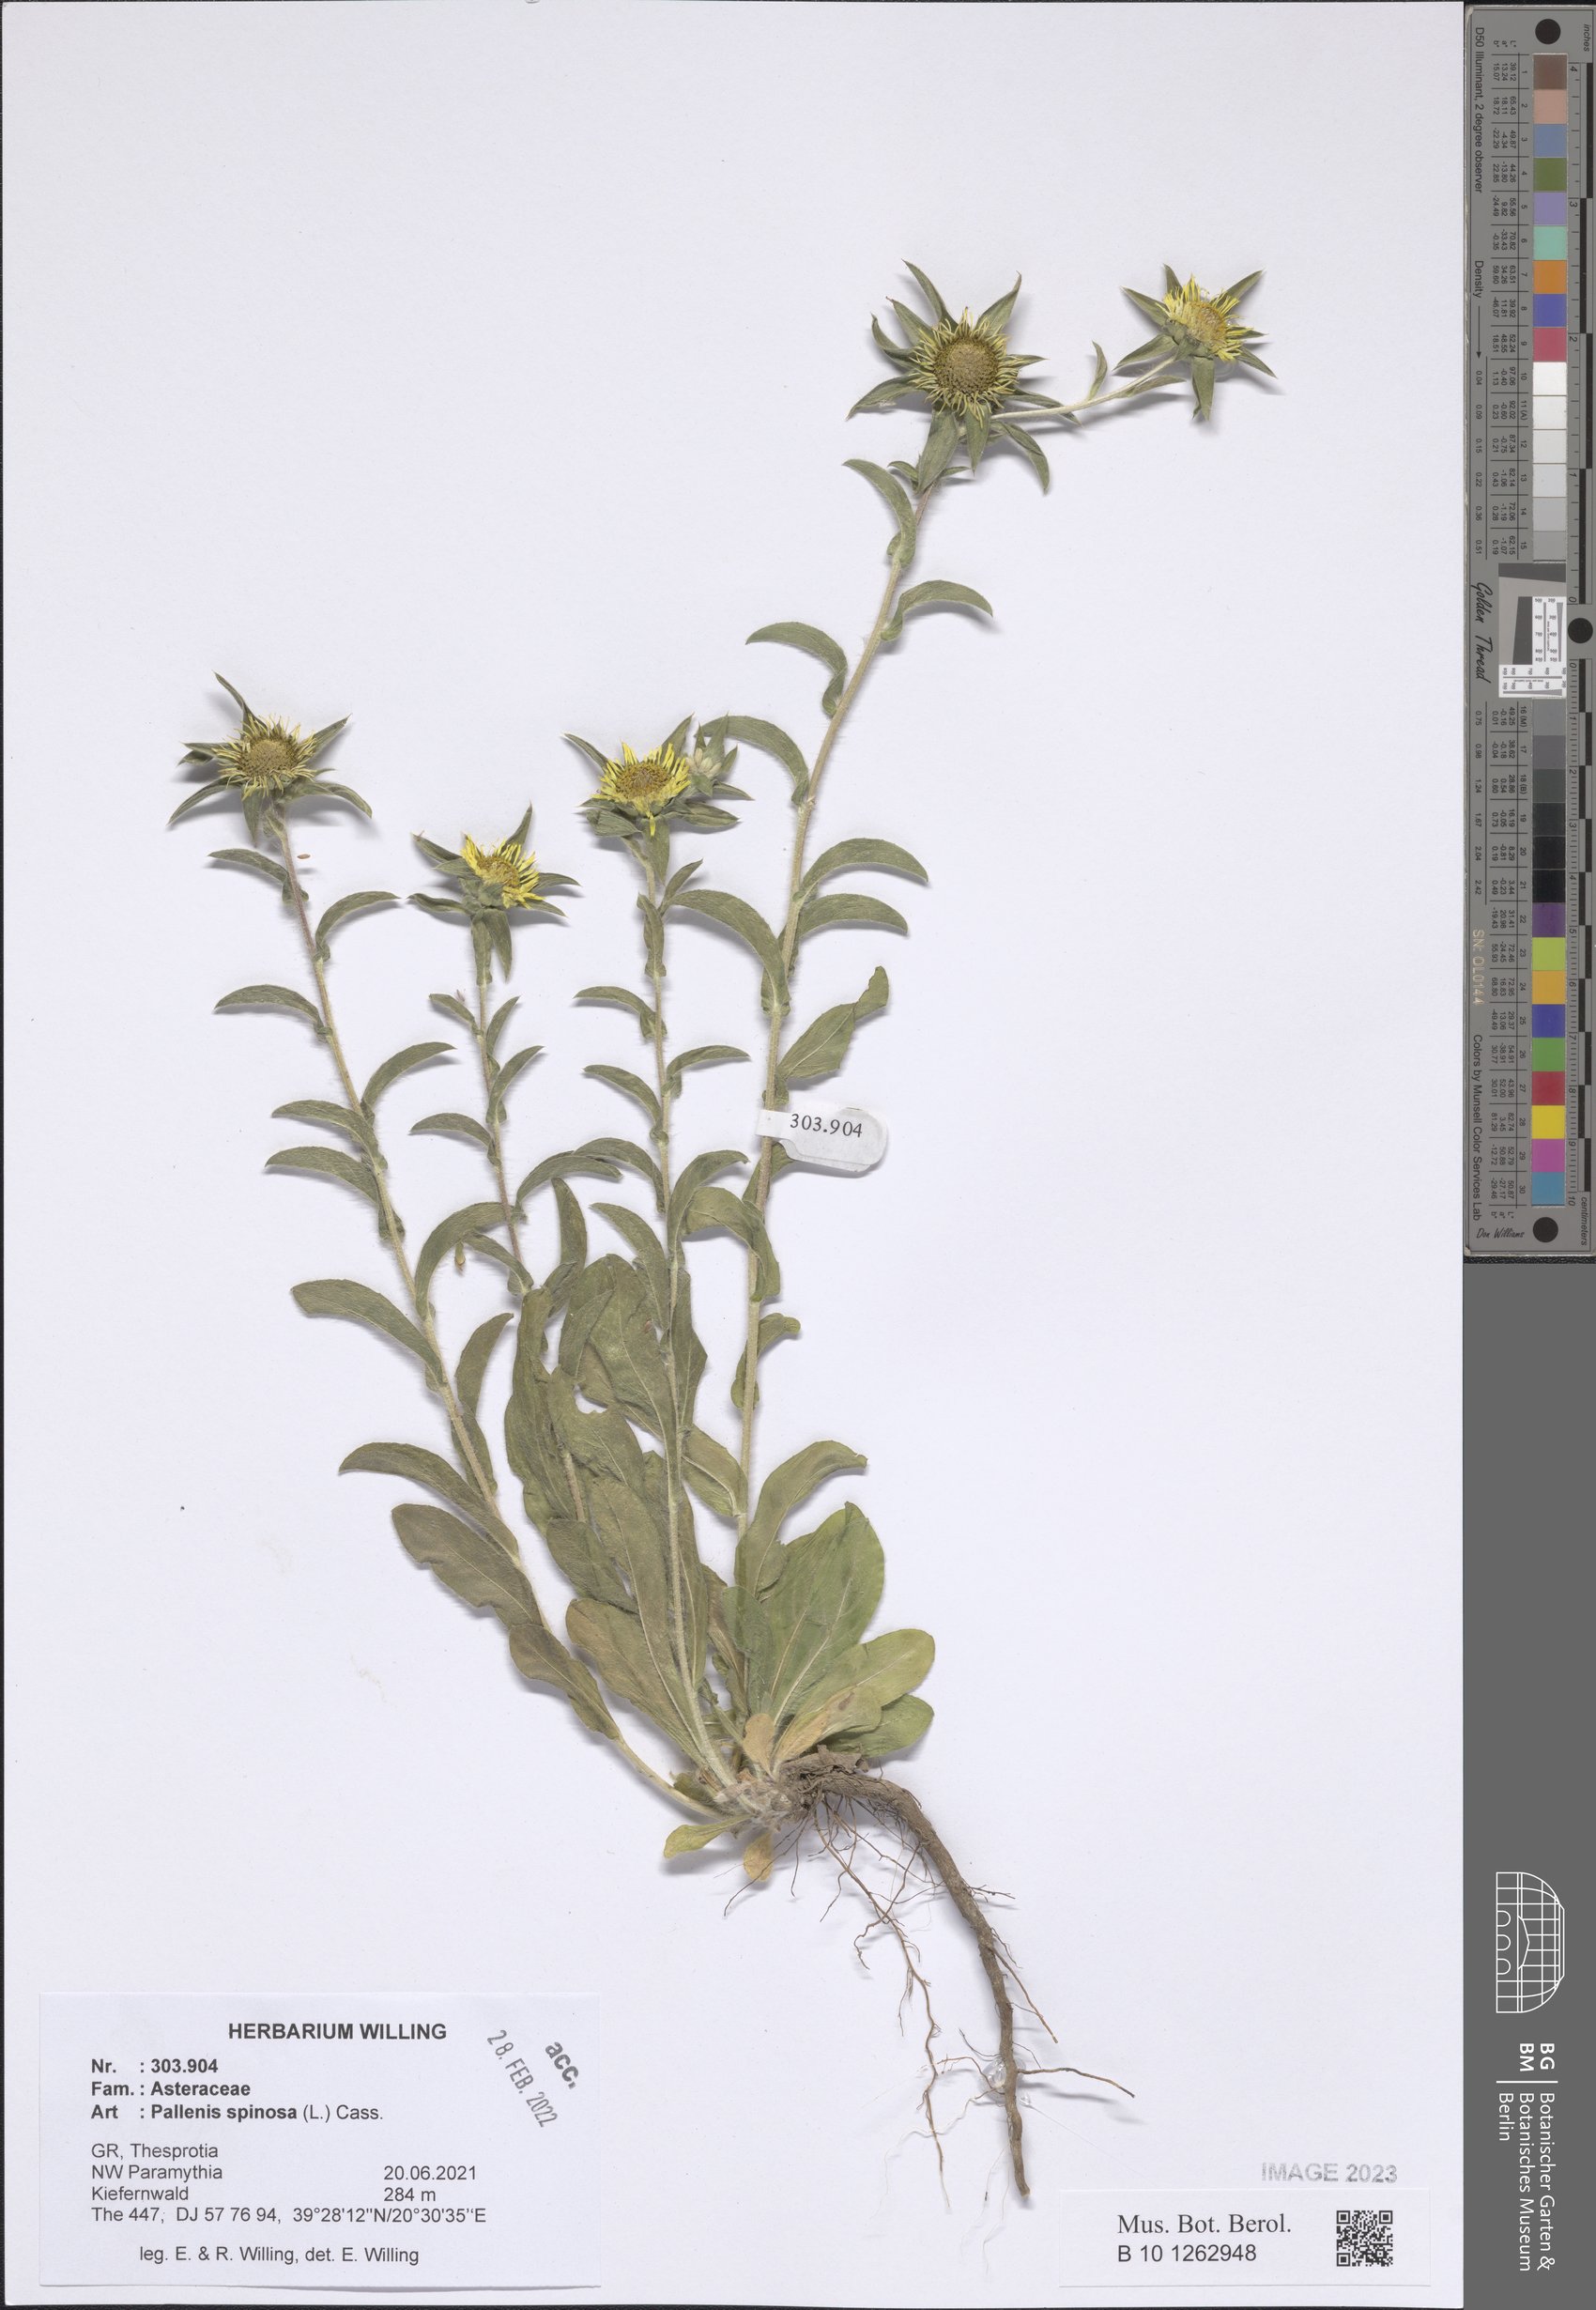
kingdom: Plantae
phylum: Tracheophyta
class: Magnoliopsida
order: Asterales
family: Asteraceae
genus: Pallenis
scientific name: Pallenis spinosa
